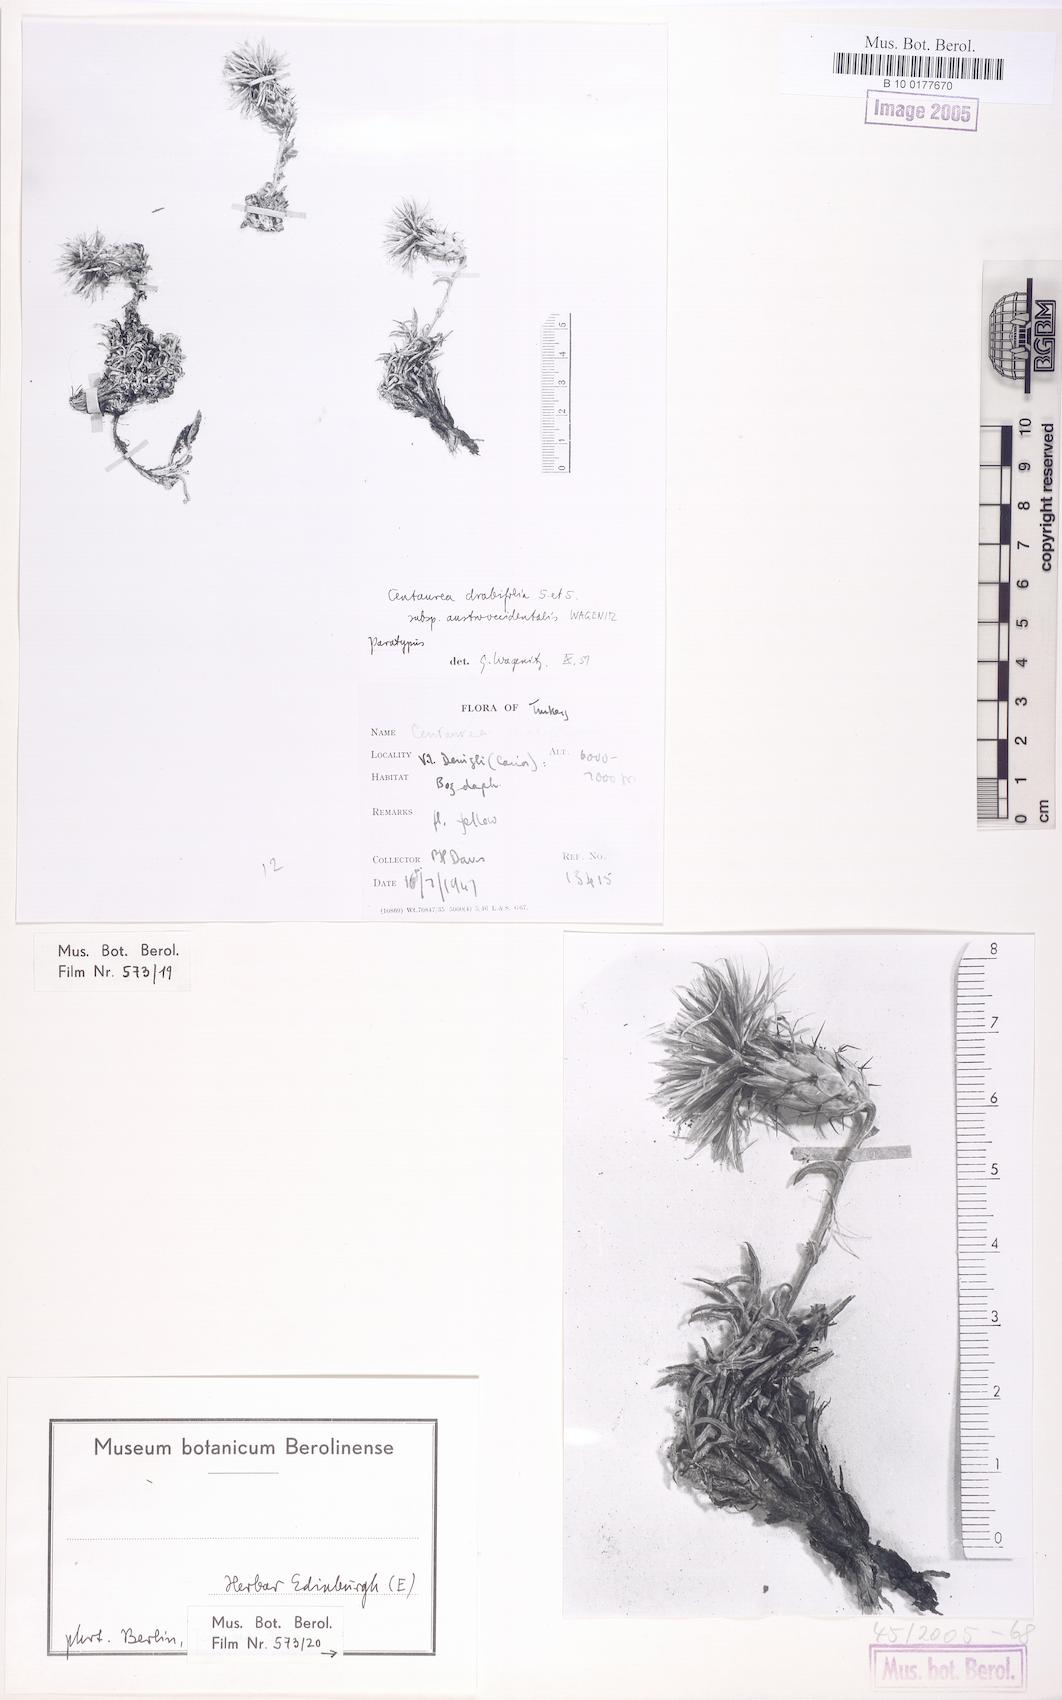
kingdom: Plantae
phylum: Tracheophyta
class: Magnoliopsida
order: Asterales
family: Asteraceae
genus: Centaurea
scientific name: Centaurea drabifolia
